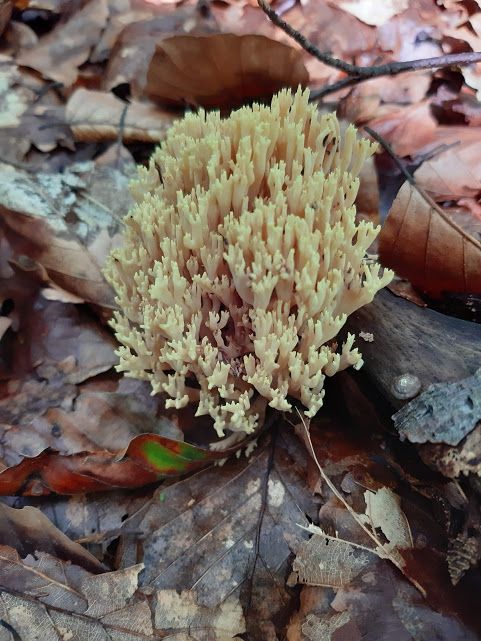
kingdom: Fungi
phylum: Basidiomycota
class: Agaricomycetes
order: Gomphales
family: Gomphaceae
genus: Ramaria
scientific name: Ramaria stricta
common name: rank koralsvamp
